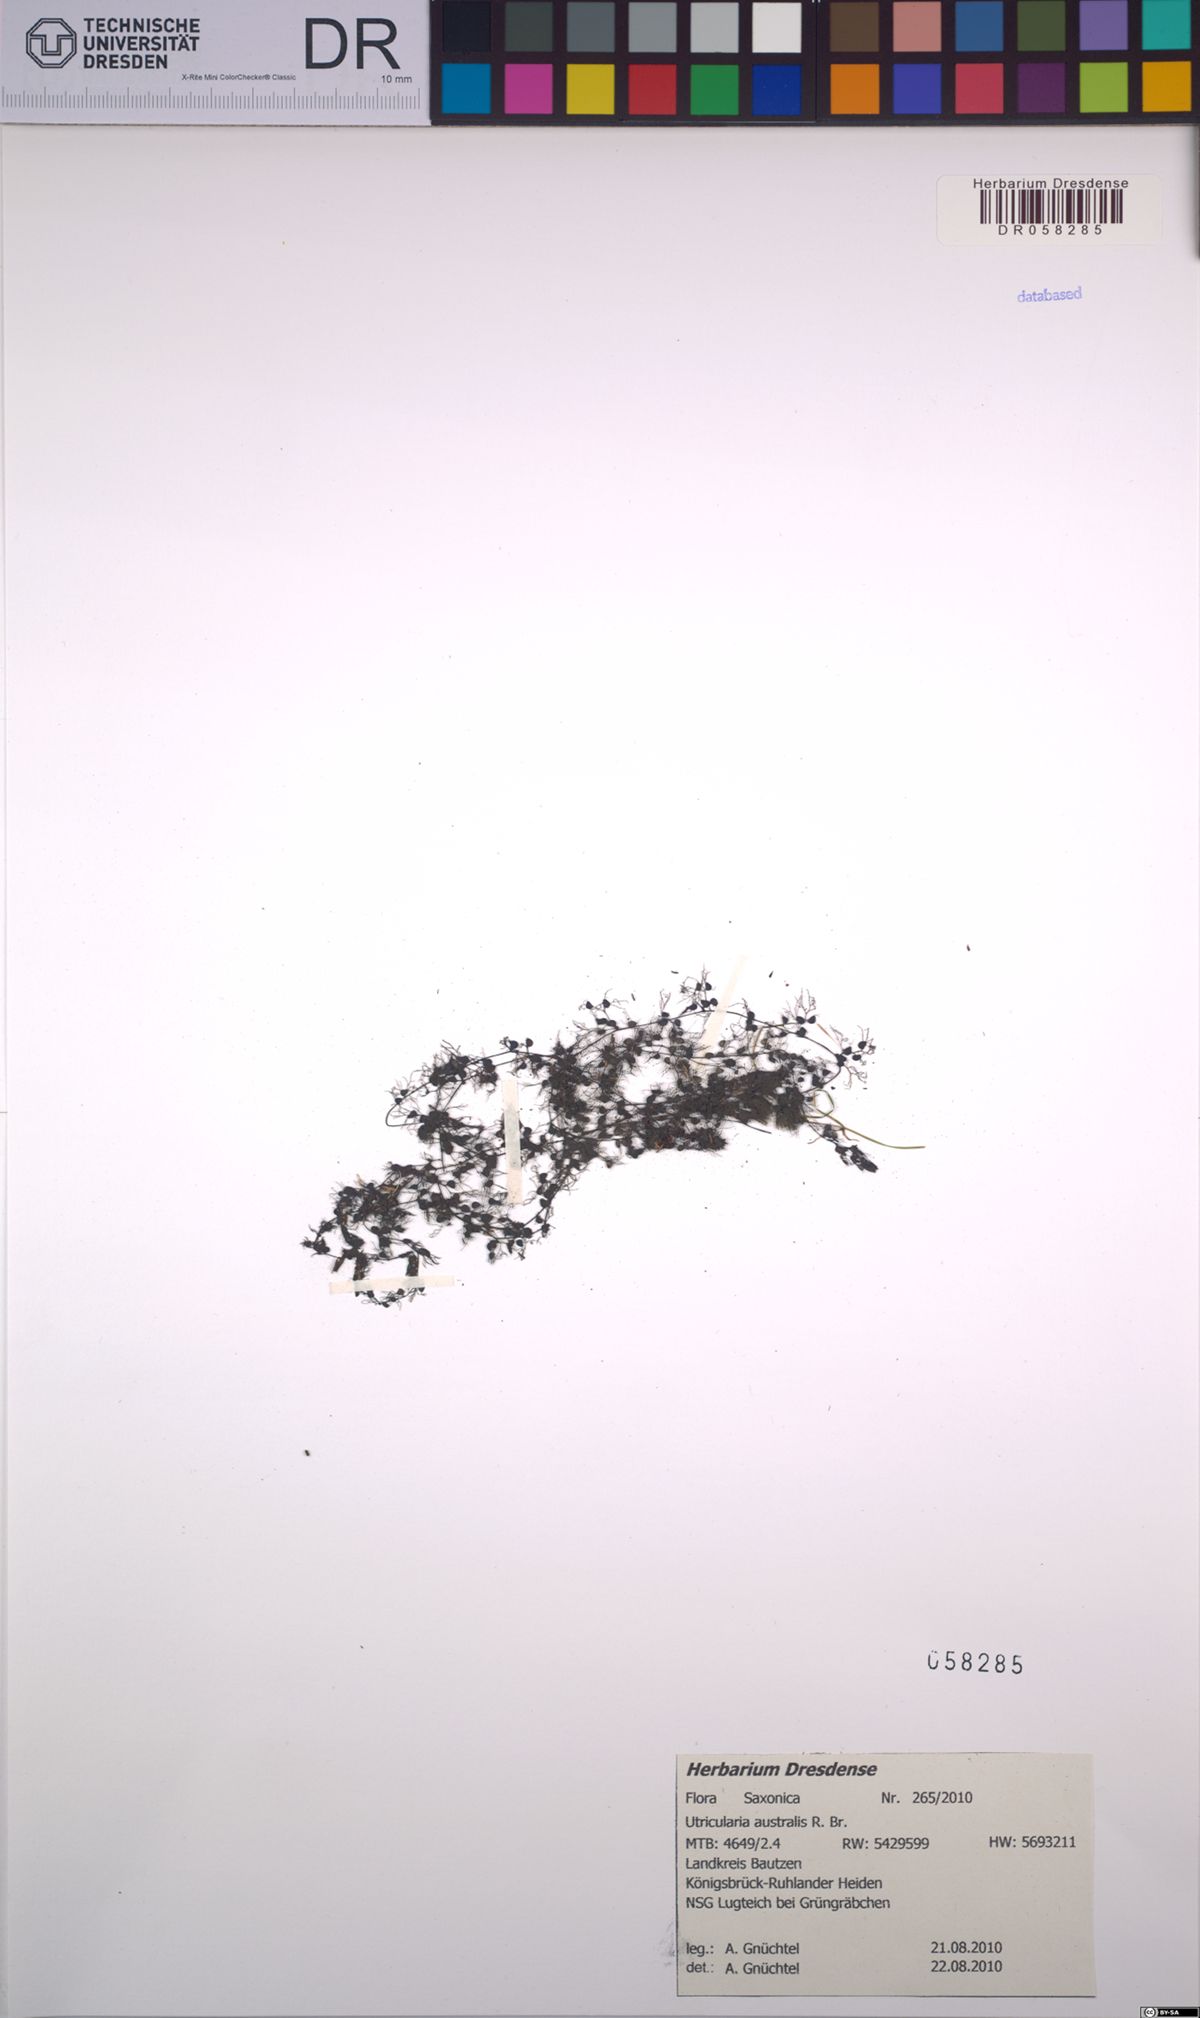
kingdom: Plantae
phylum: Tracheophyta
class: Magnoliopsida
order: Lamiales
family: Lentibulariaceae
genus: Utricularia
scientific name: Utricularia australis
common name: Bladderwort
